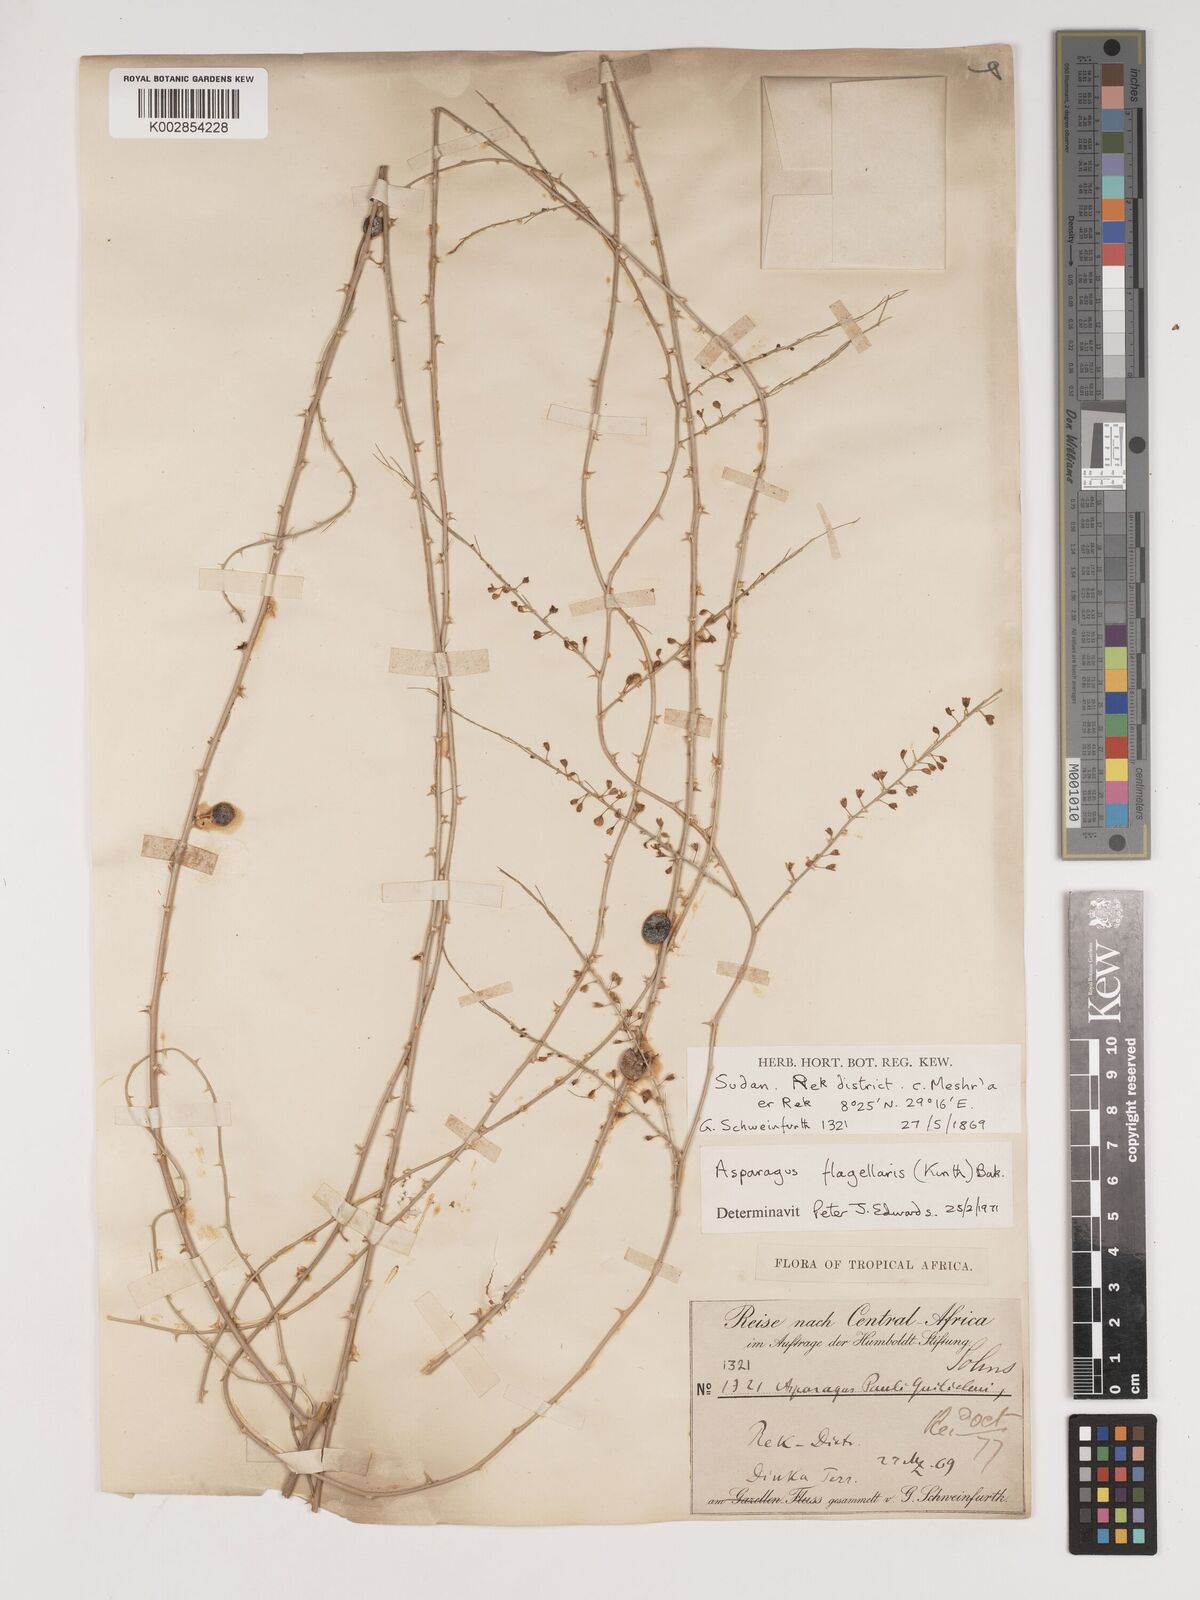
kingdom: Plantae
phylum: Tracheophyta
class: Liliopsida
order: Asparagales
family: Asparagaceae
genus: Asparagus
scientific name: Asparagus flagellaris
